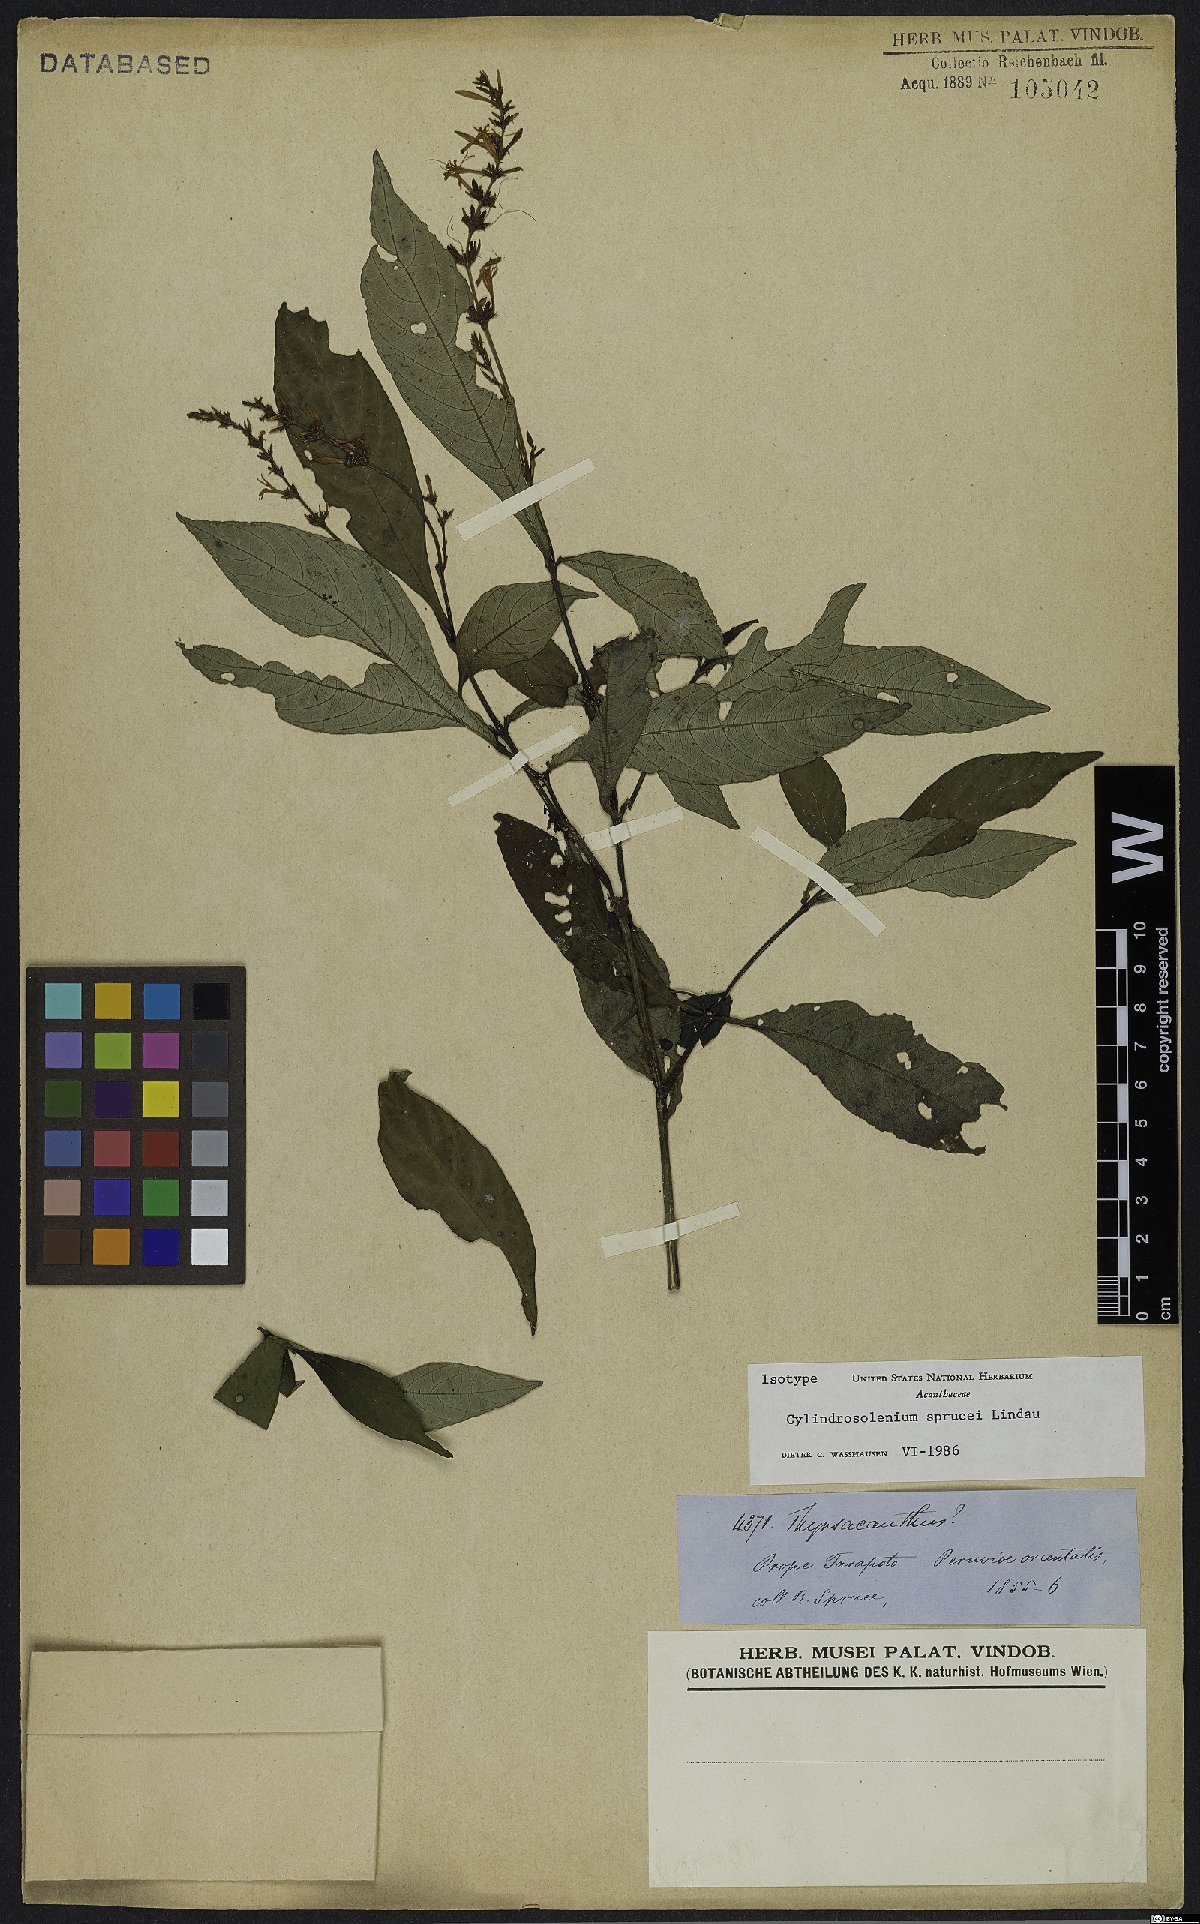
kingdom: Plantae
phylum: Tracheophyta
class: Magnoliopsida
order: Lamiales
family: Acanthaceae
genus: Stenostephanus
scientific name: Stenostephanus sprucei
